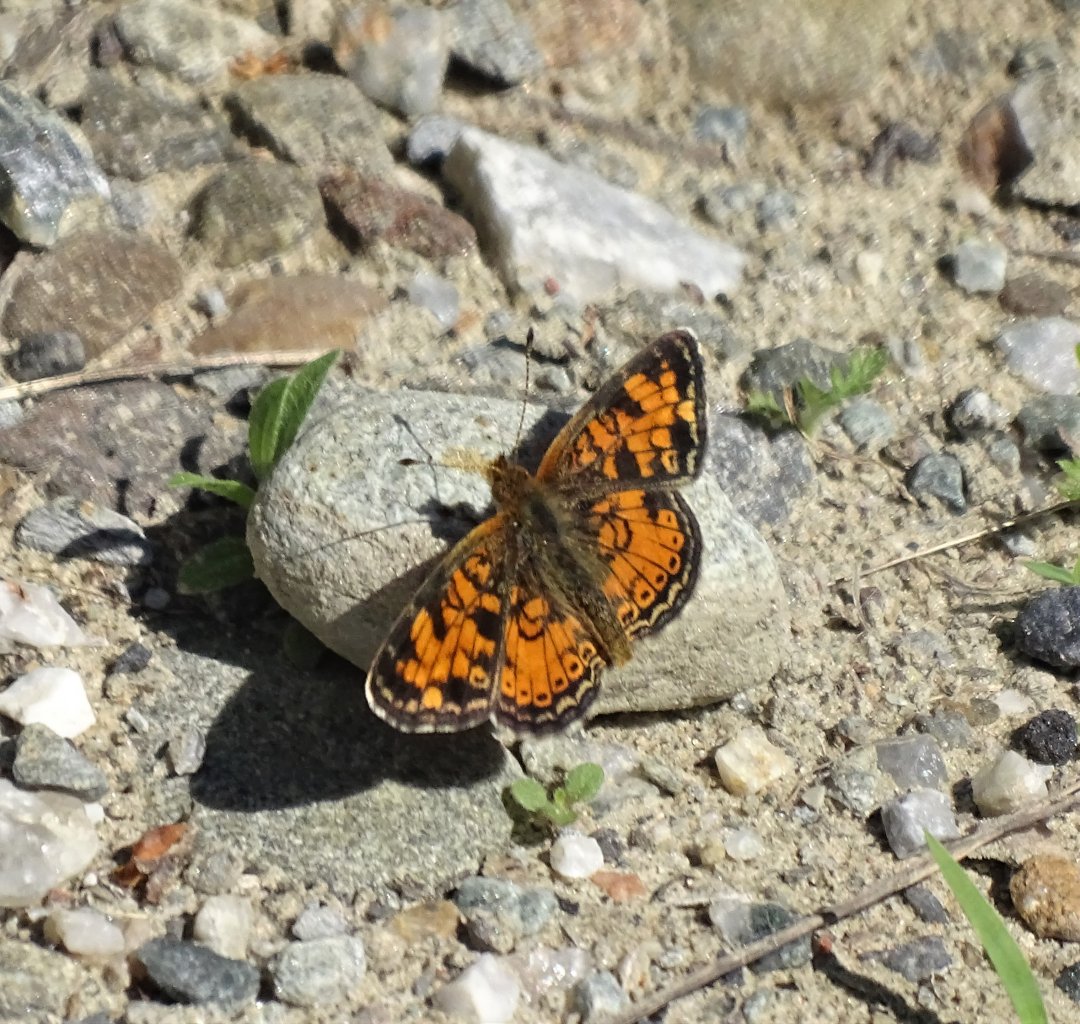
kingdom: Animalia
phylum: Arthropoda
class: Insecta
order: Lepidoptera
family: Nymphalidae
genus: Phyciodes
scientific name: Phyciodes
